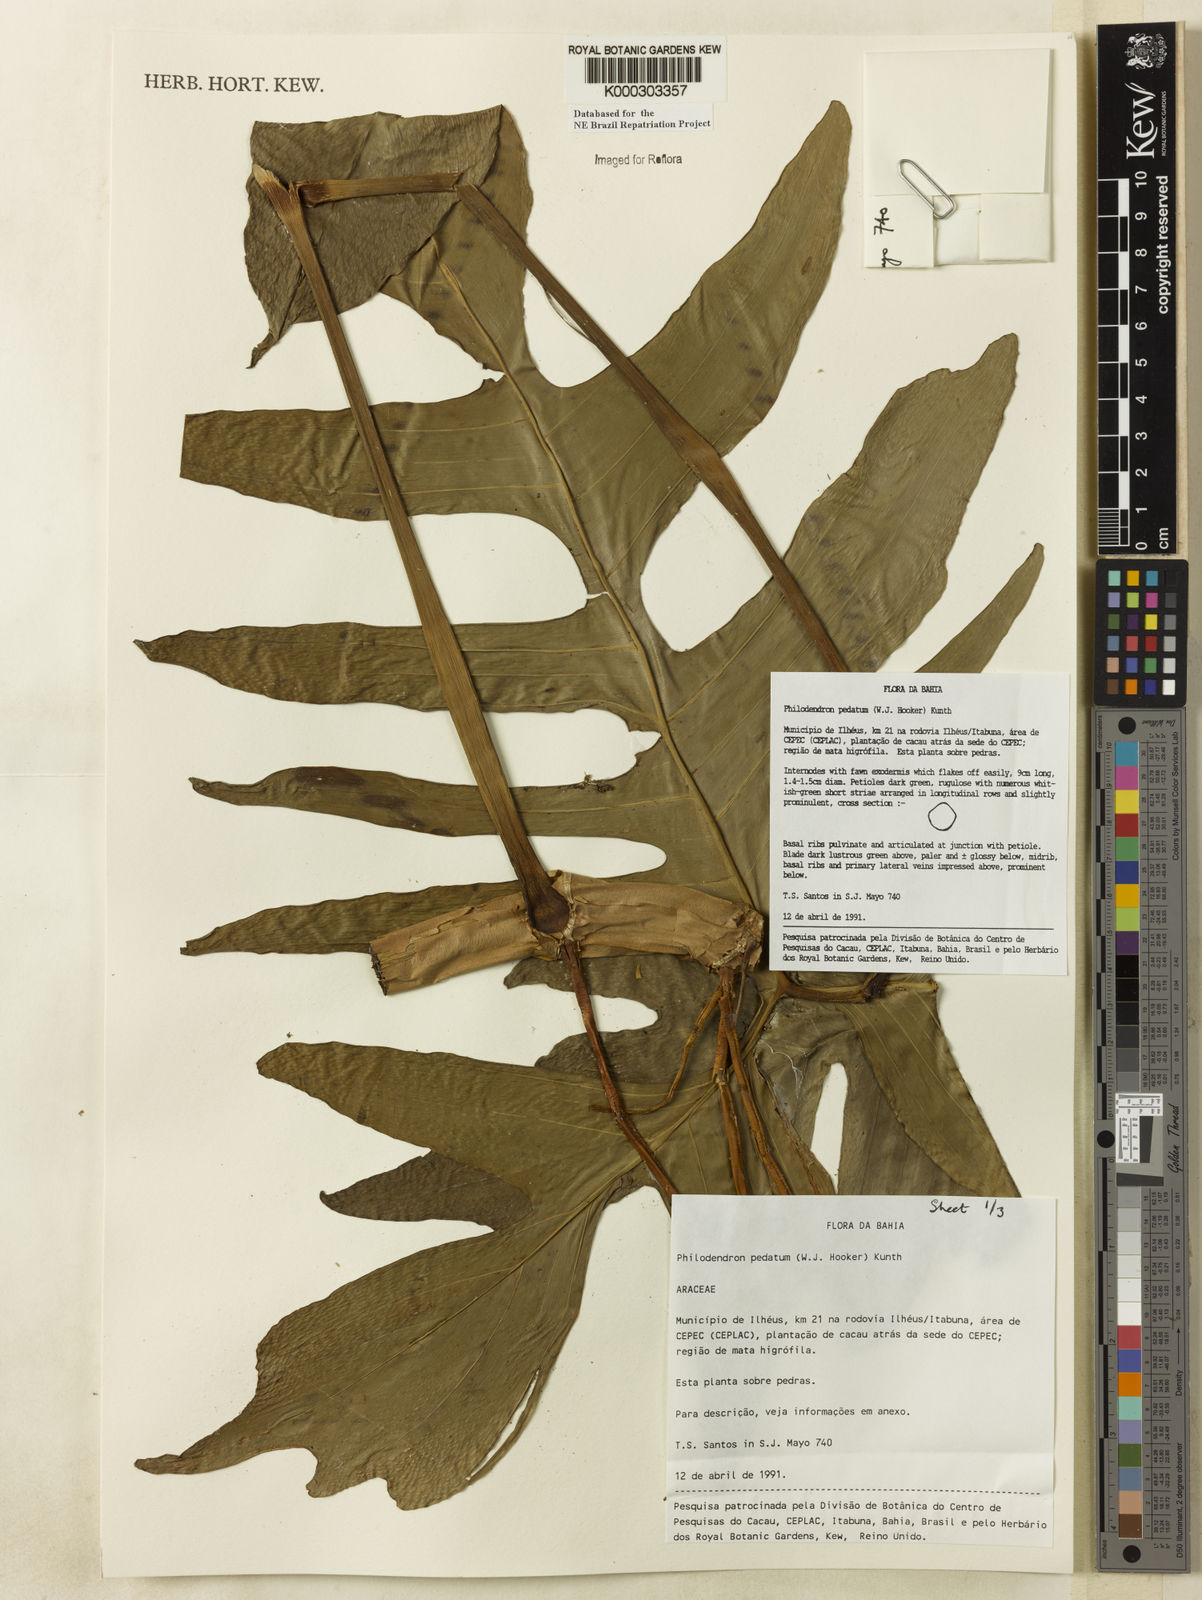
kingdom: Plantae
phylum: Tracheophyta
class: Liliopsida
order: Alismatales
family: Araceae
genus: Philodendron
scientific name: Philodendron pedatum
